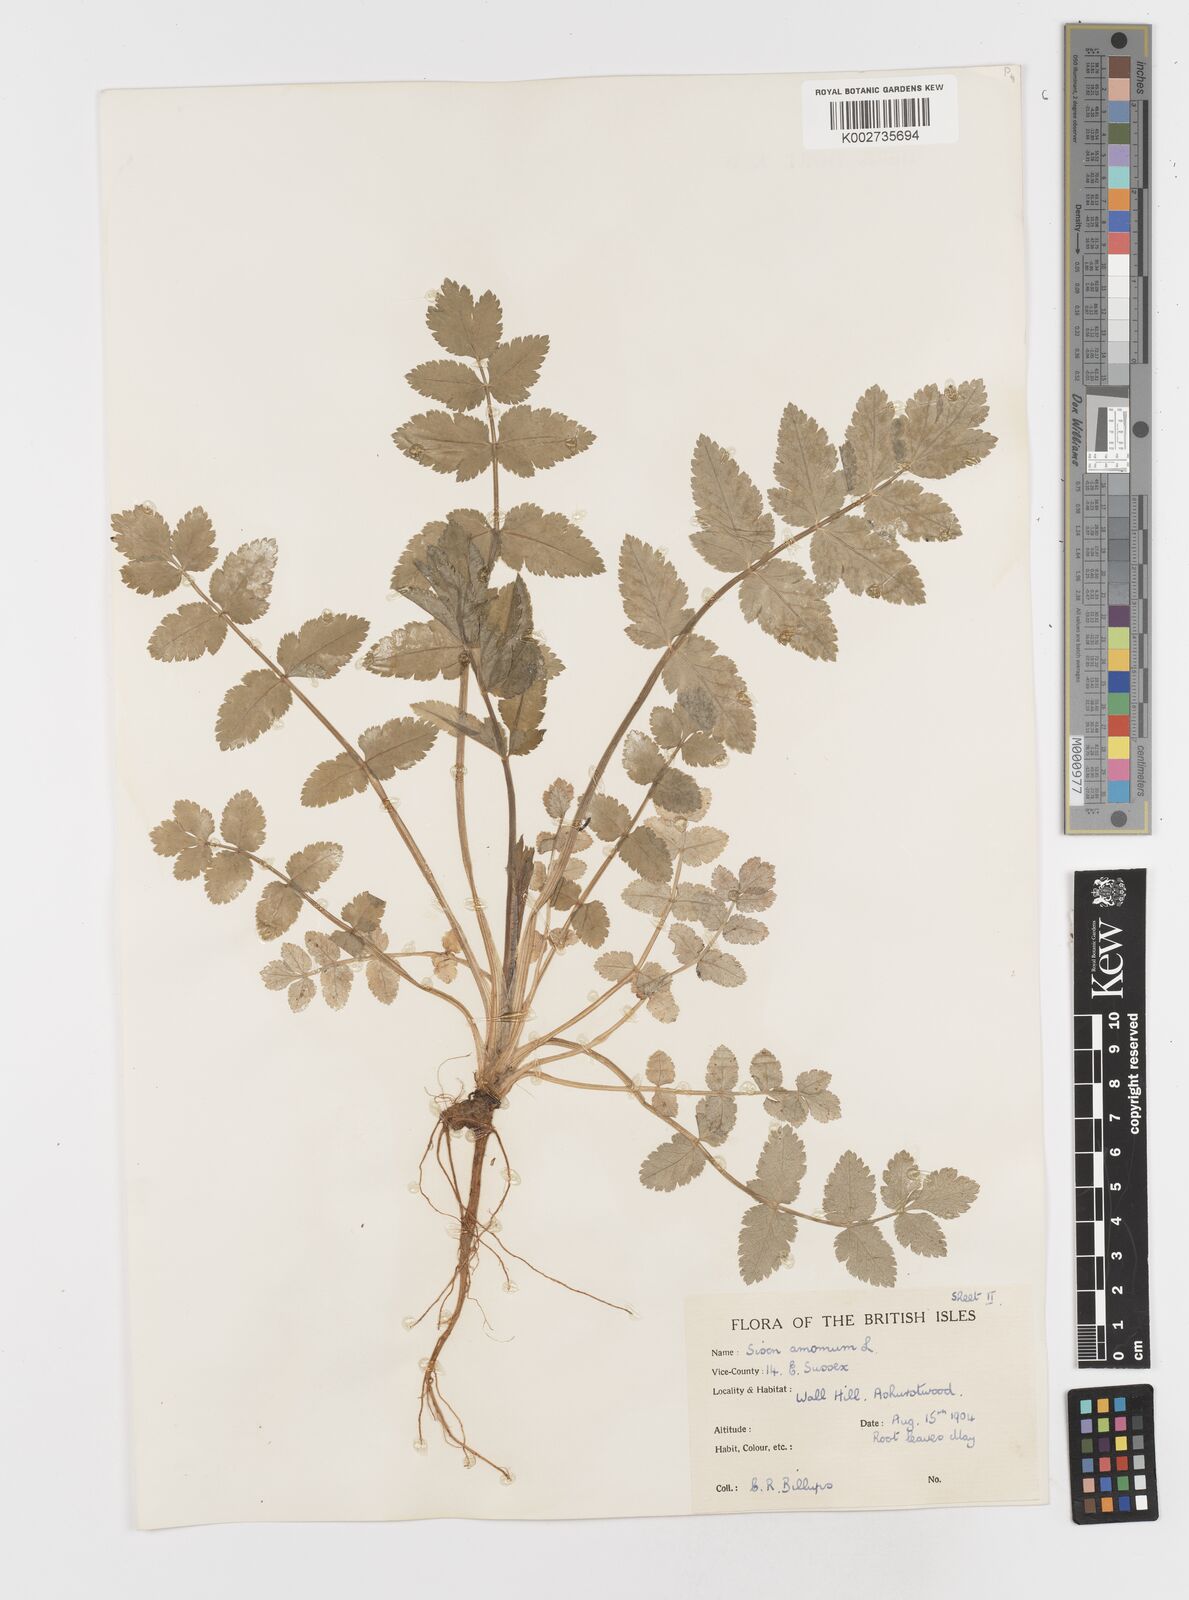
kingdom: Plantae
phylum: Tracheophyta
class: Magnoliopsida
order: Apiales
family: Apiaceae
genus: Sison
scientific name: Sison amomum
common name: Stone-parsley
